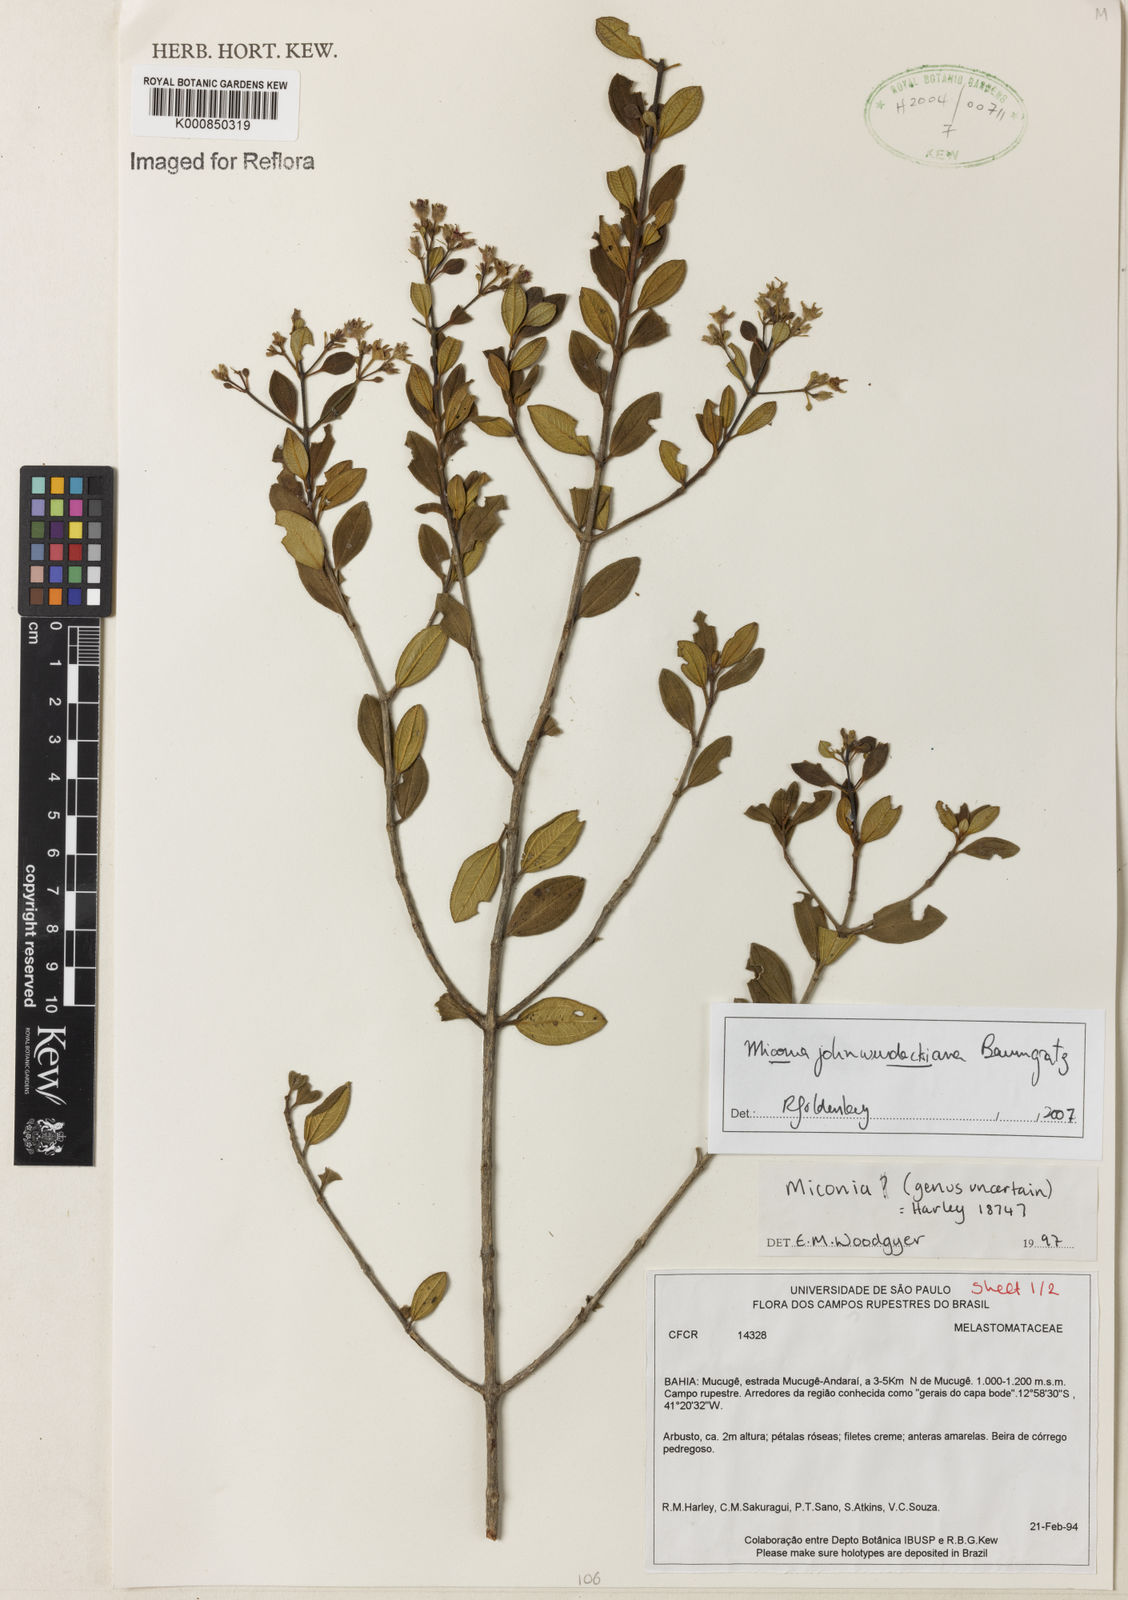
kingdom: Plantae
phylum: Tracheophyta
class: Magnoliopsida
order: Myrtales
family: Melastomataceae
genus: Miconia
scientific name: Miconia
